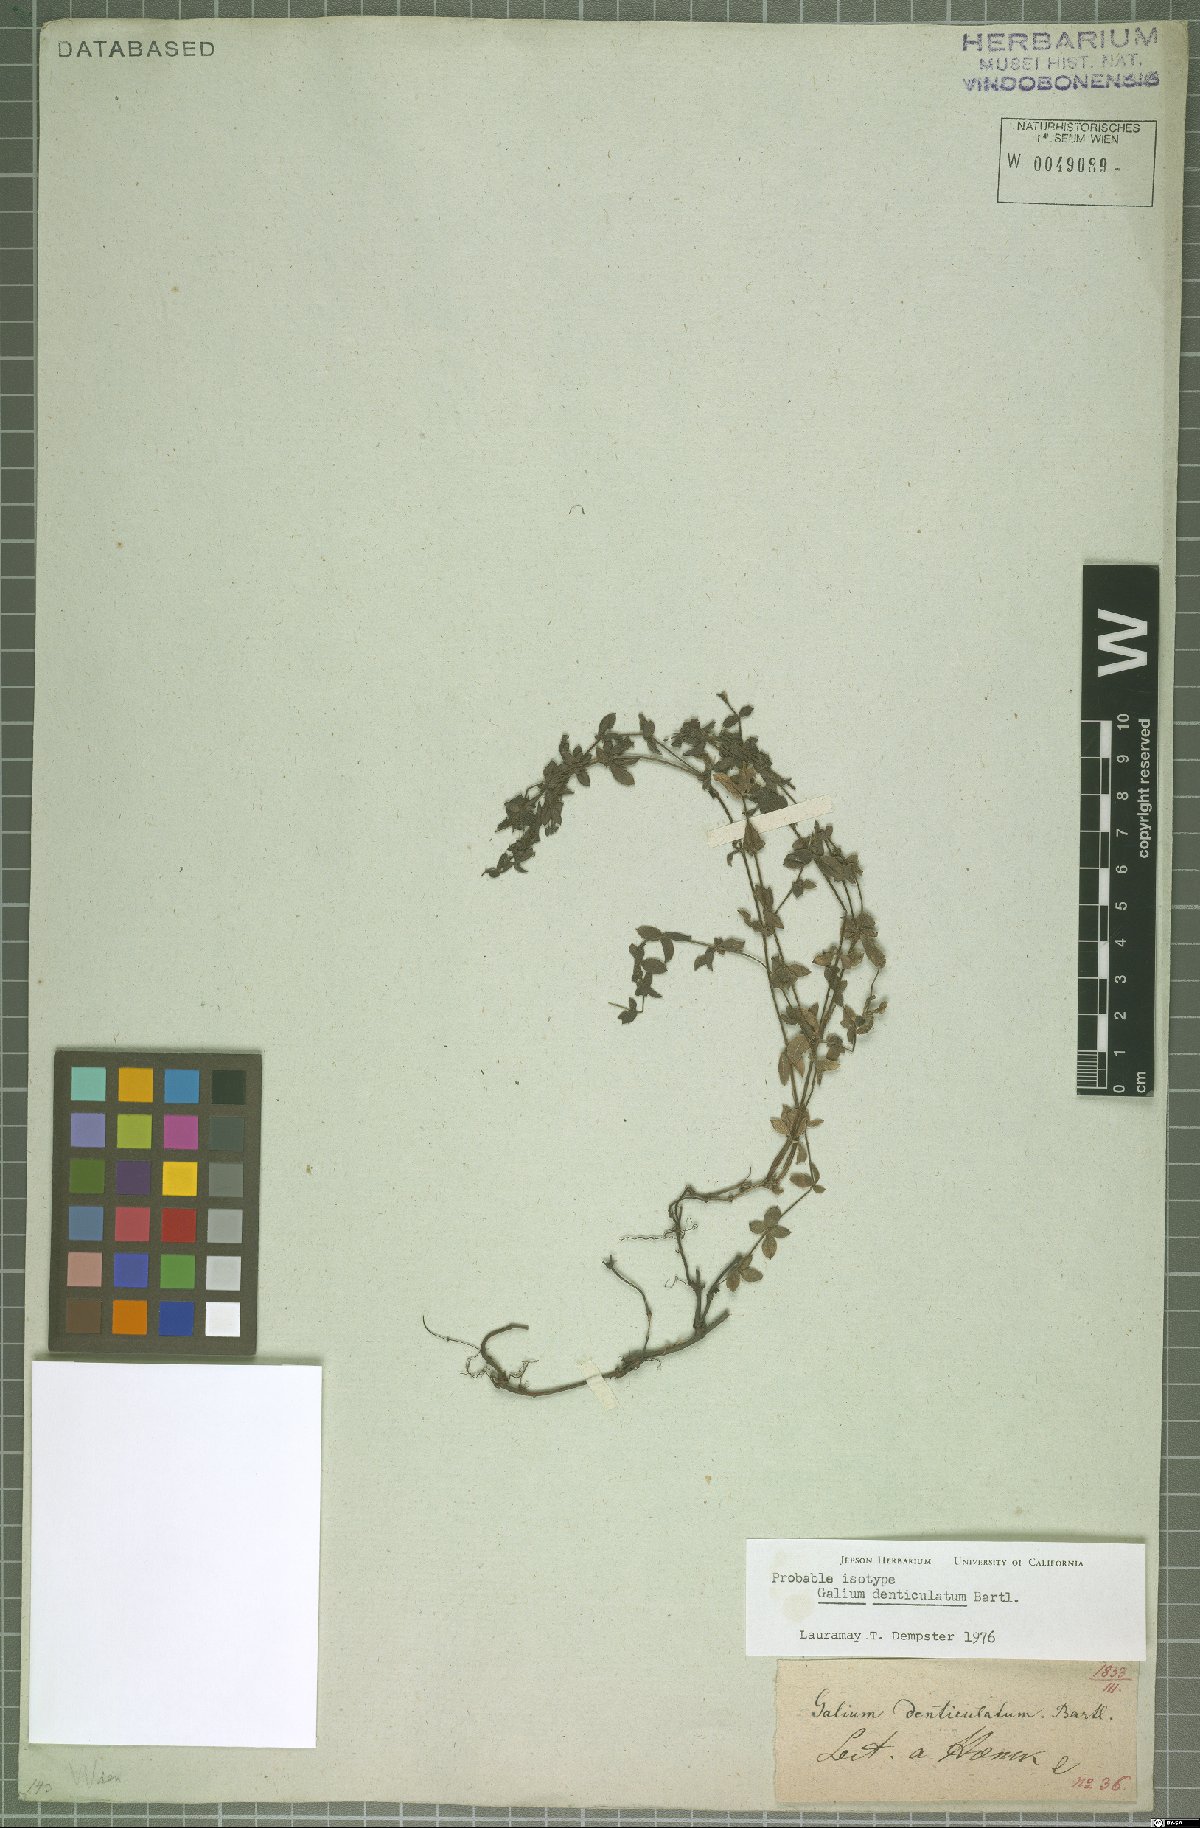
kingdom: Plantae
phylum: Tracheophyta
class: Magnoliopsida
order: Gentianales
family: Rubiaceae
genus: Galium
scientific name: Galium denticulatum
